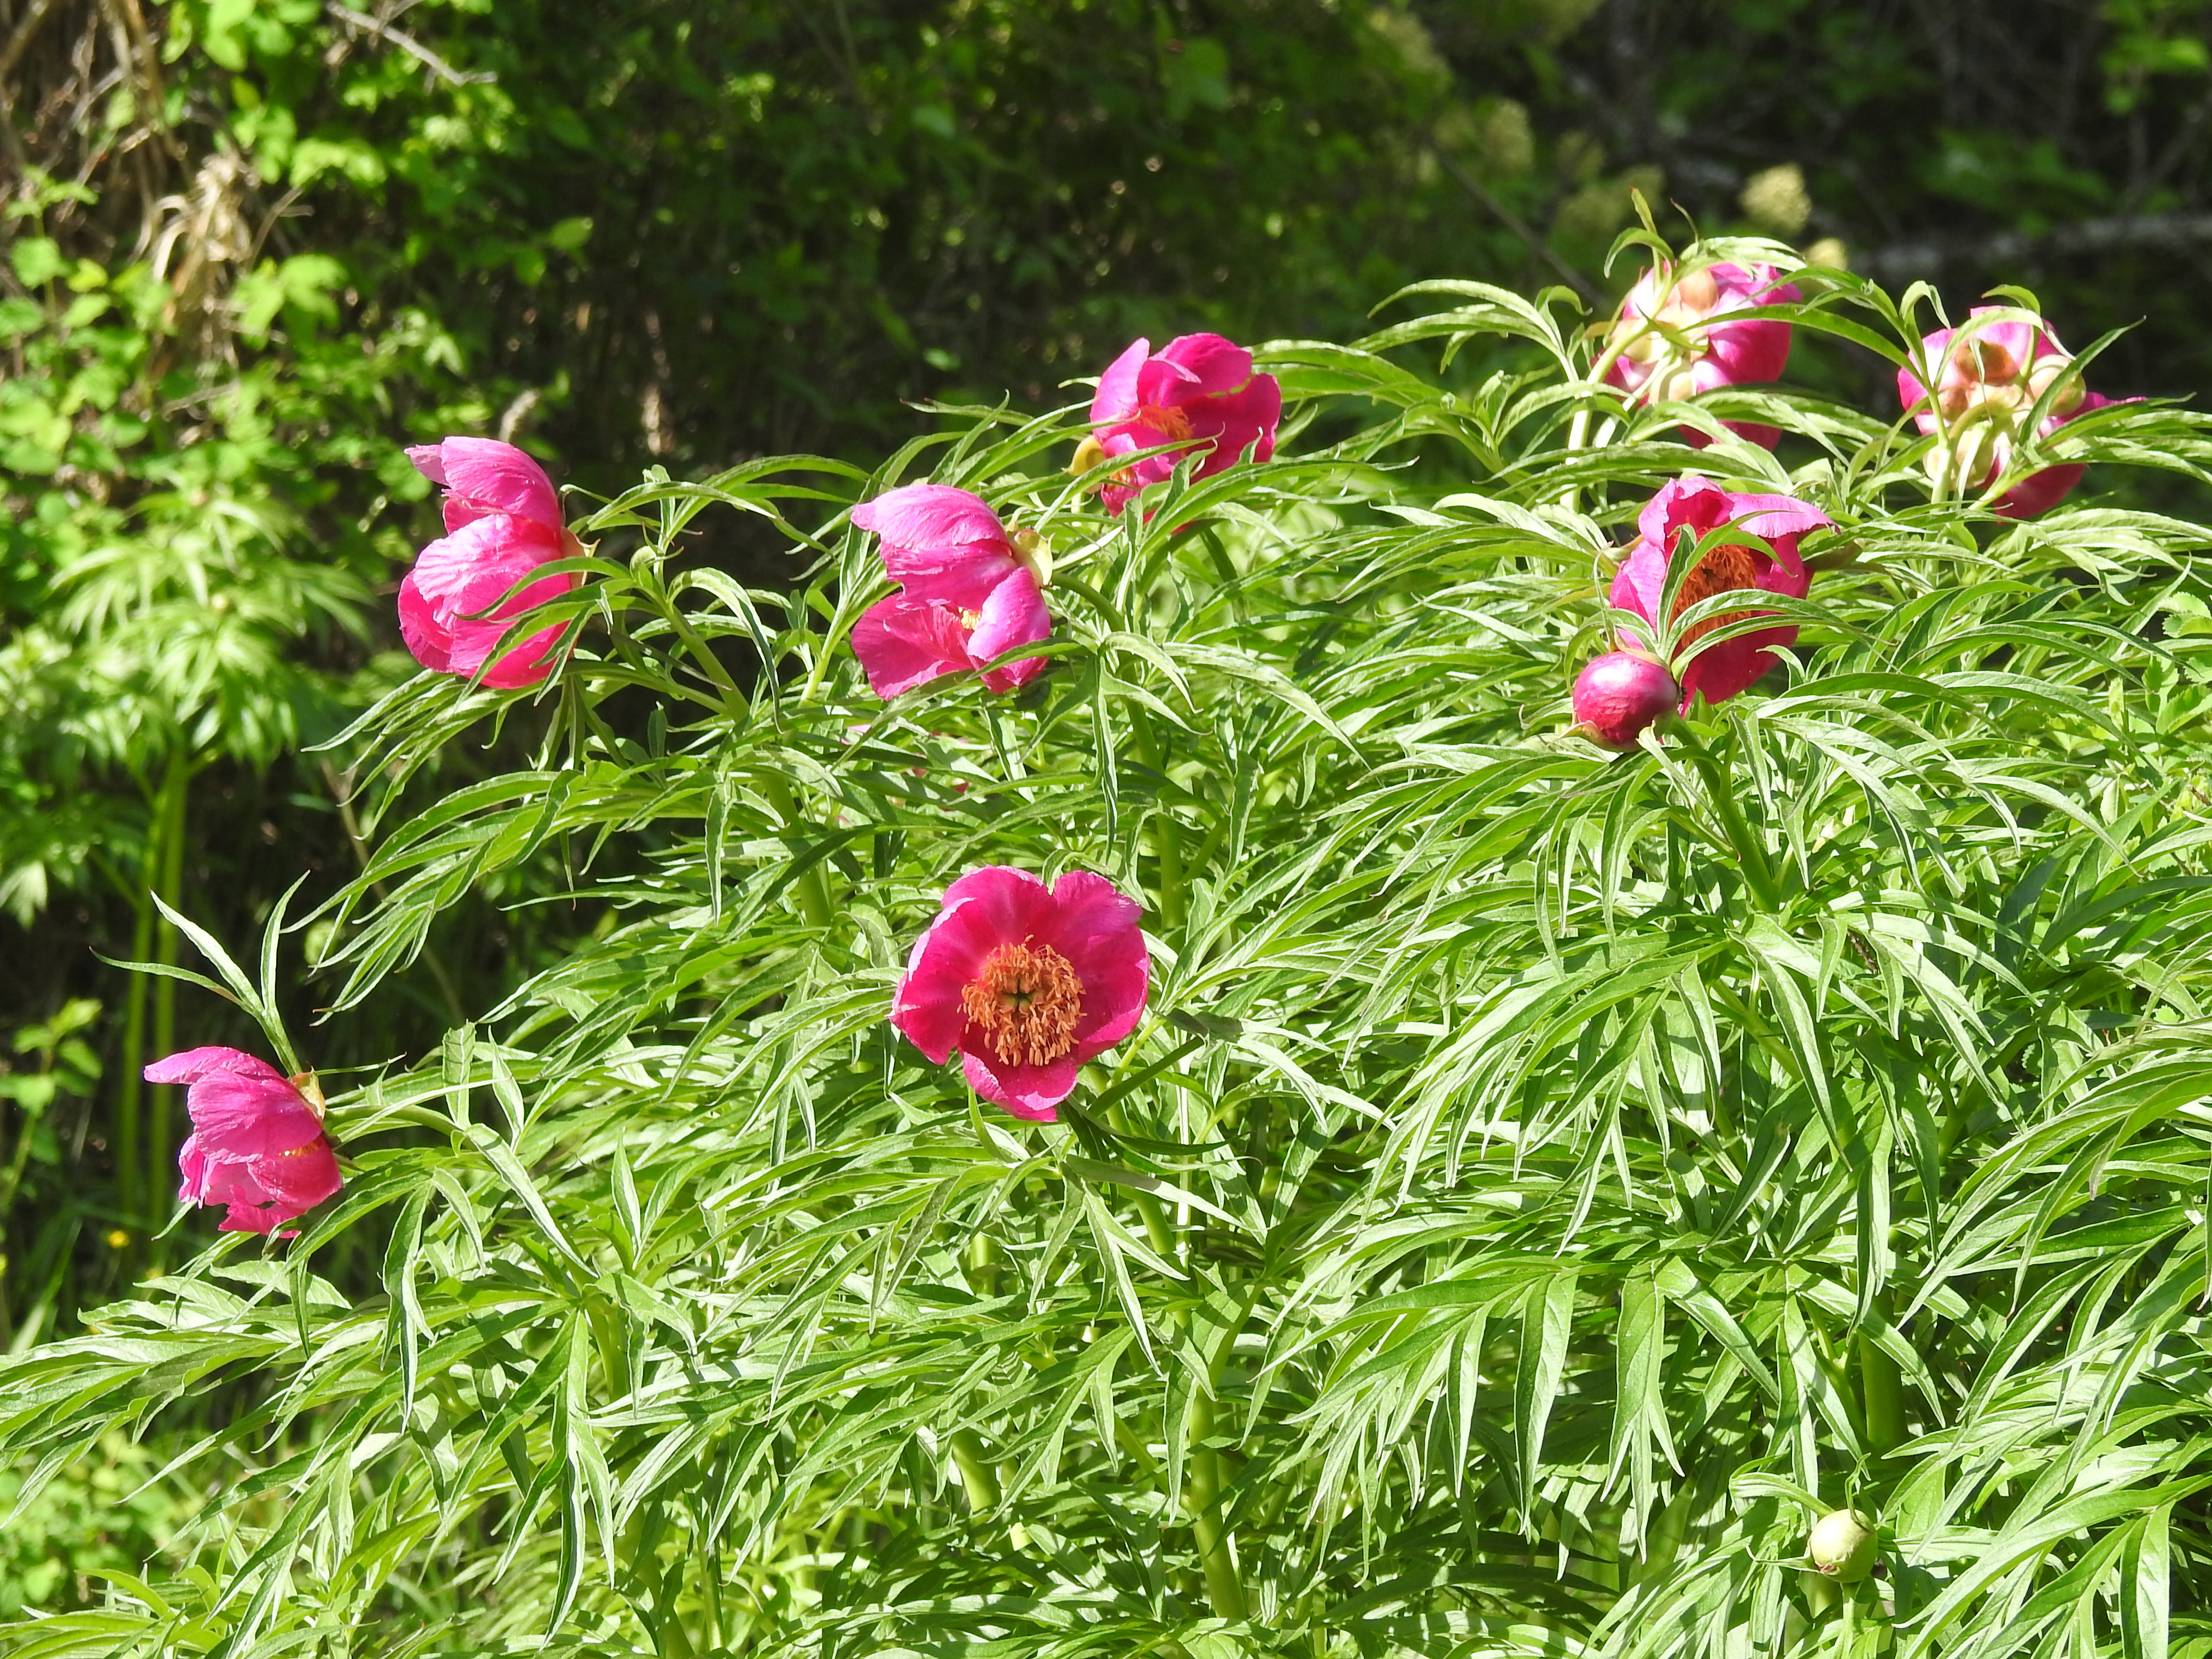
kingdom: Plantae
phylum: Tracheophyta
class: Magnoliopsida
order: Saxifragales
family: Paeoniaceae
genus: Paeonia
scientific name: Paeonia anomala
